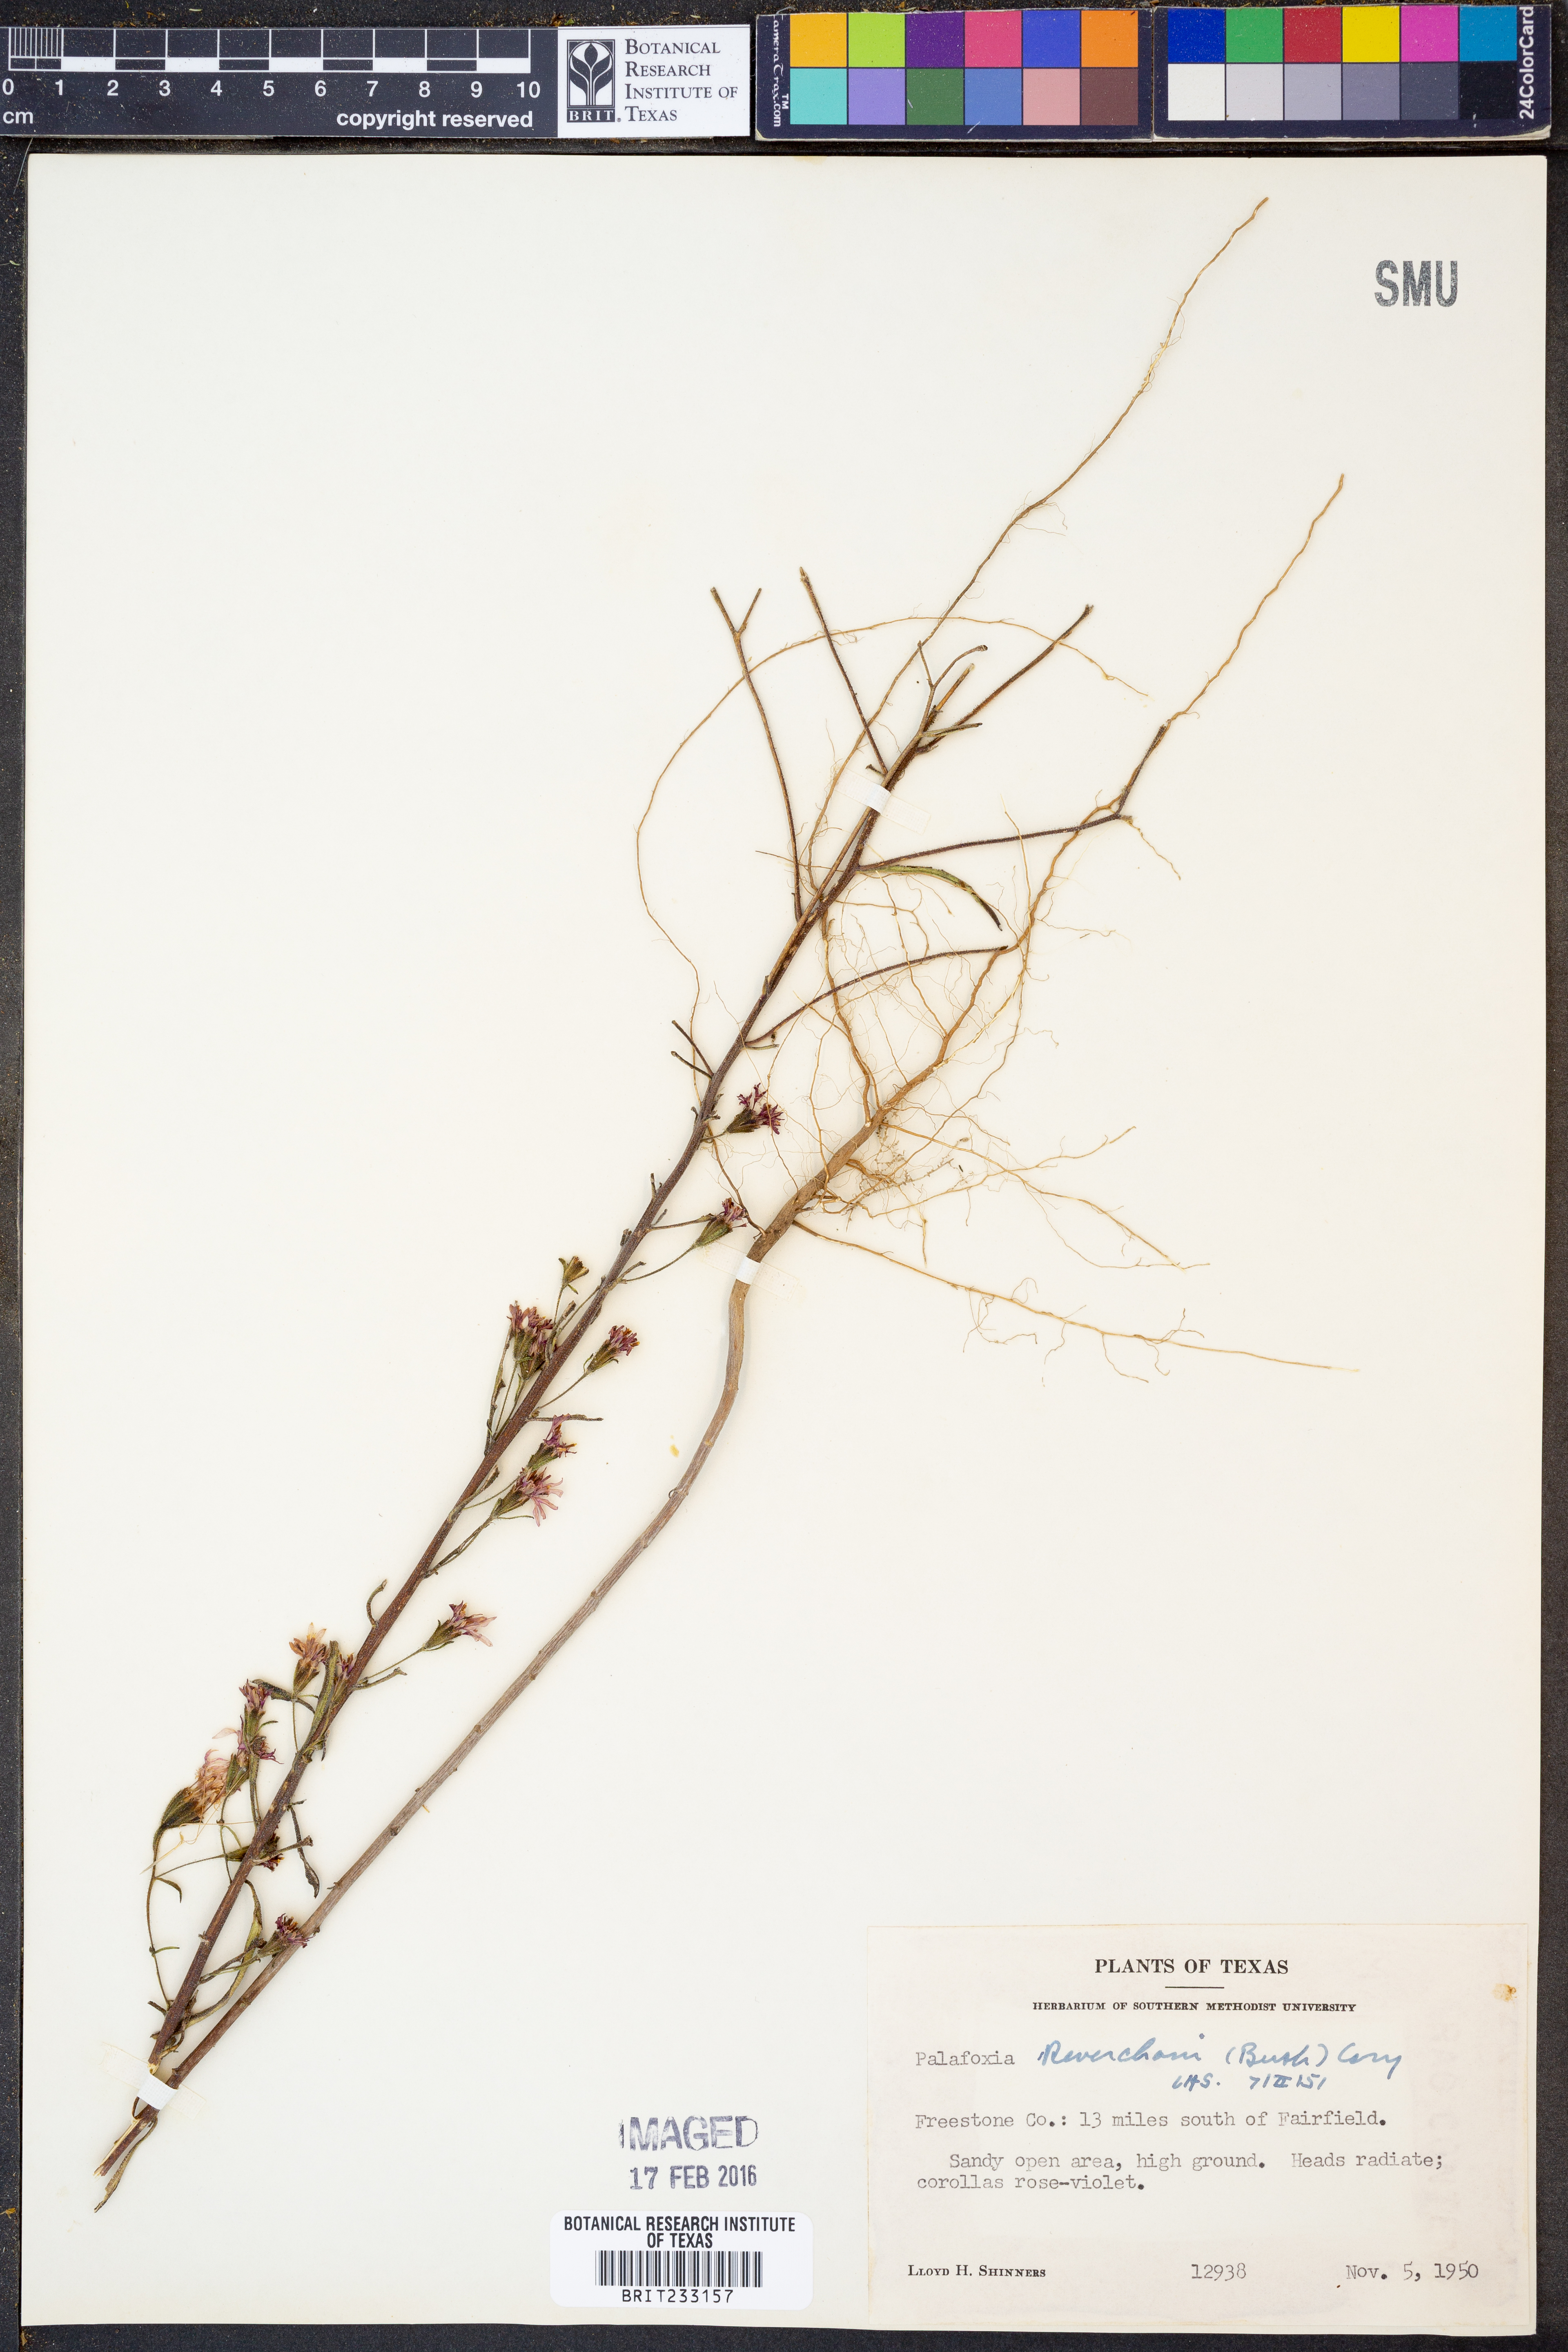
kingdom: Plantae
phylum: Tracheophyta
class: Magnoliopsida
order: Asterales
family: Asteraceae
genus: Palafoxia
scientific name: Palafoxia reverchonii
